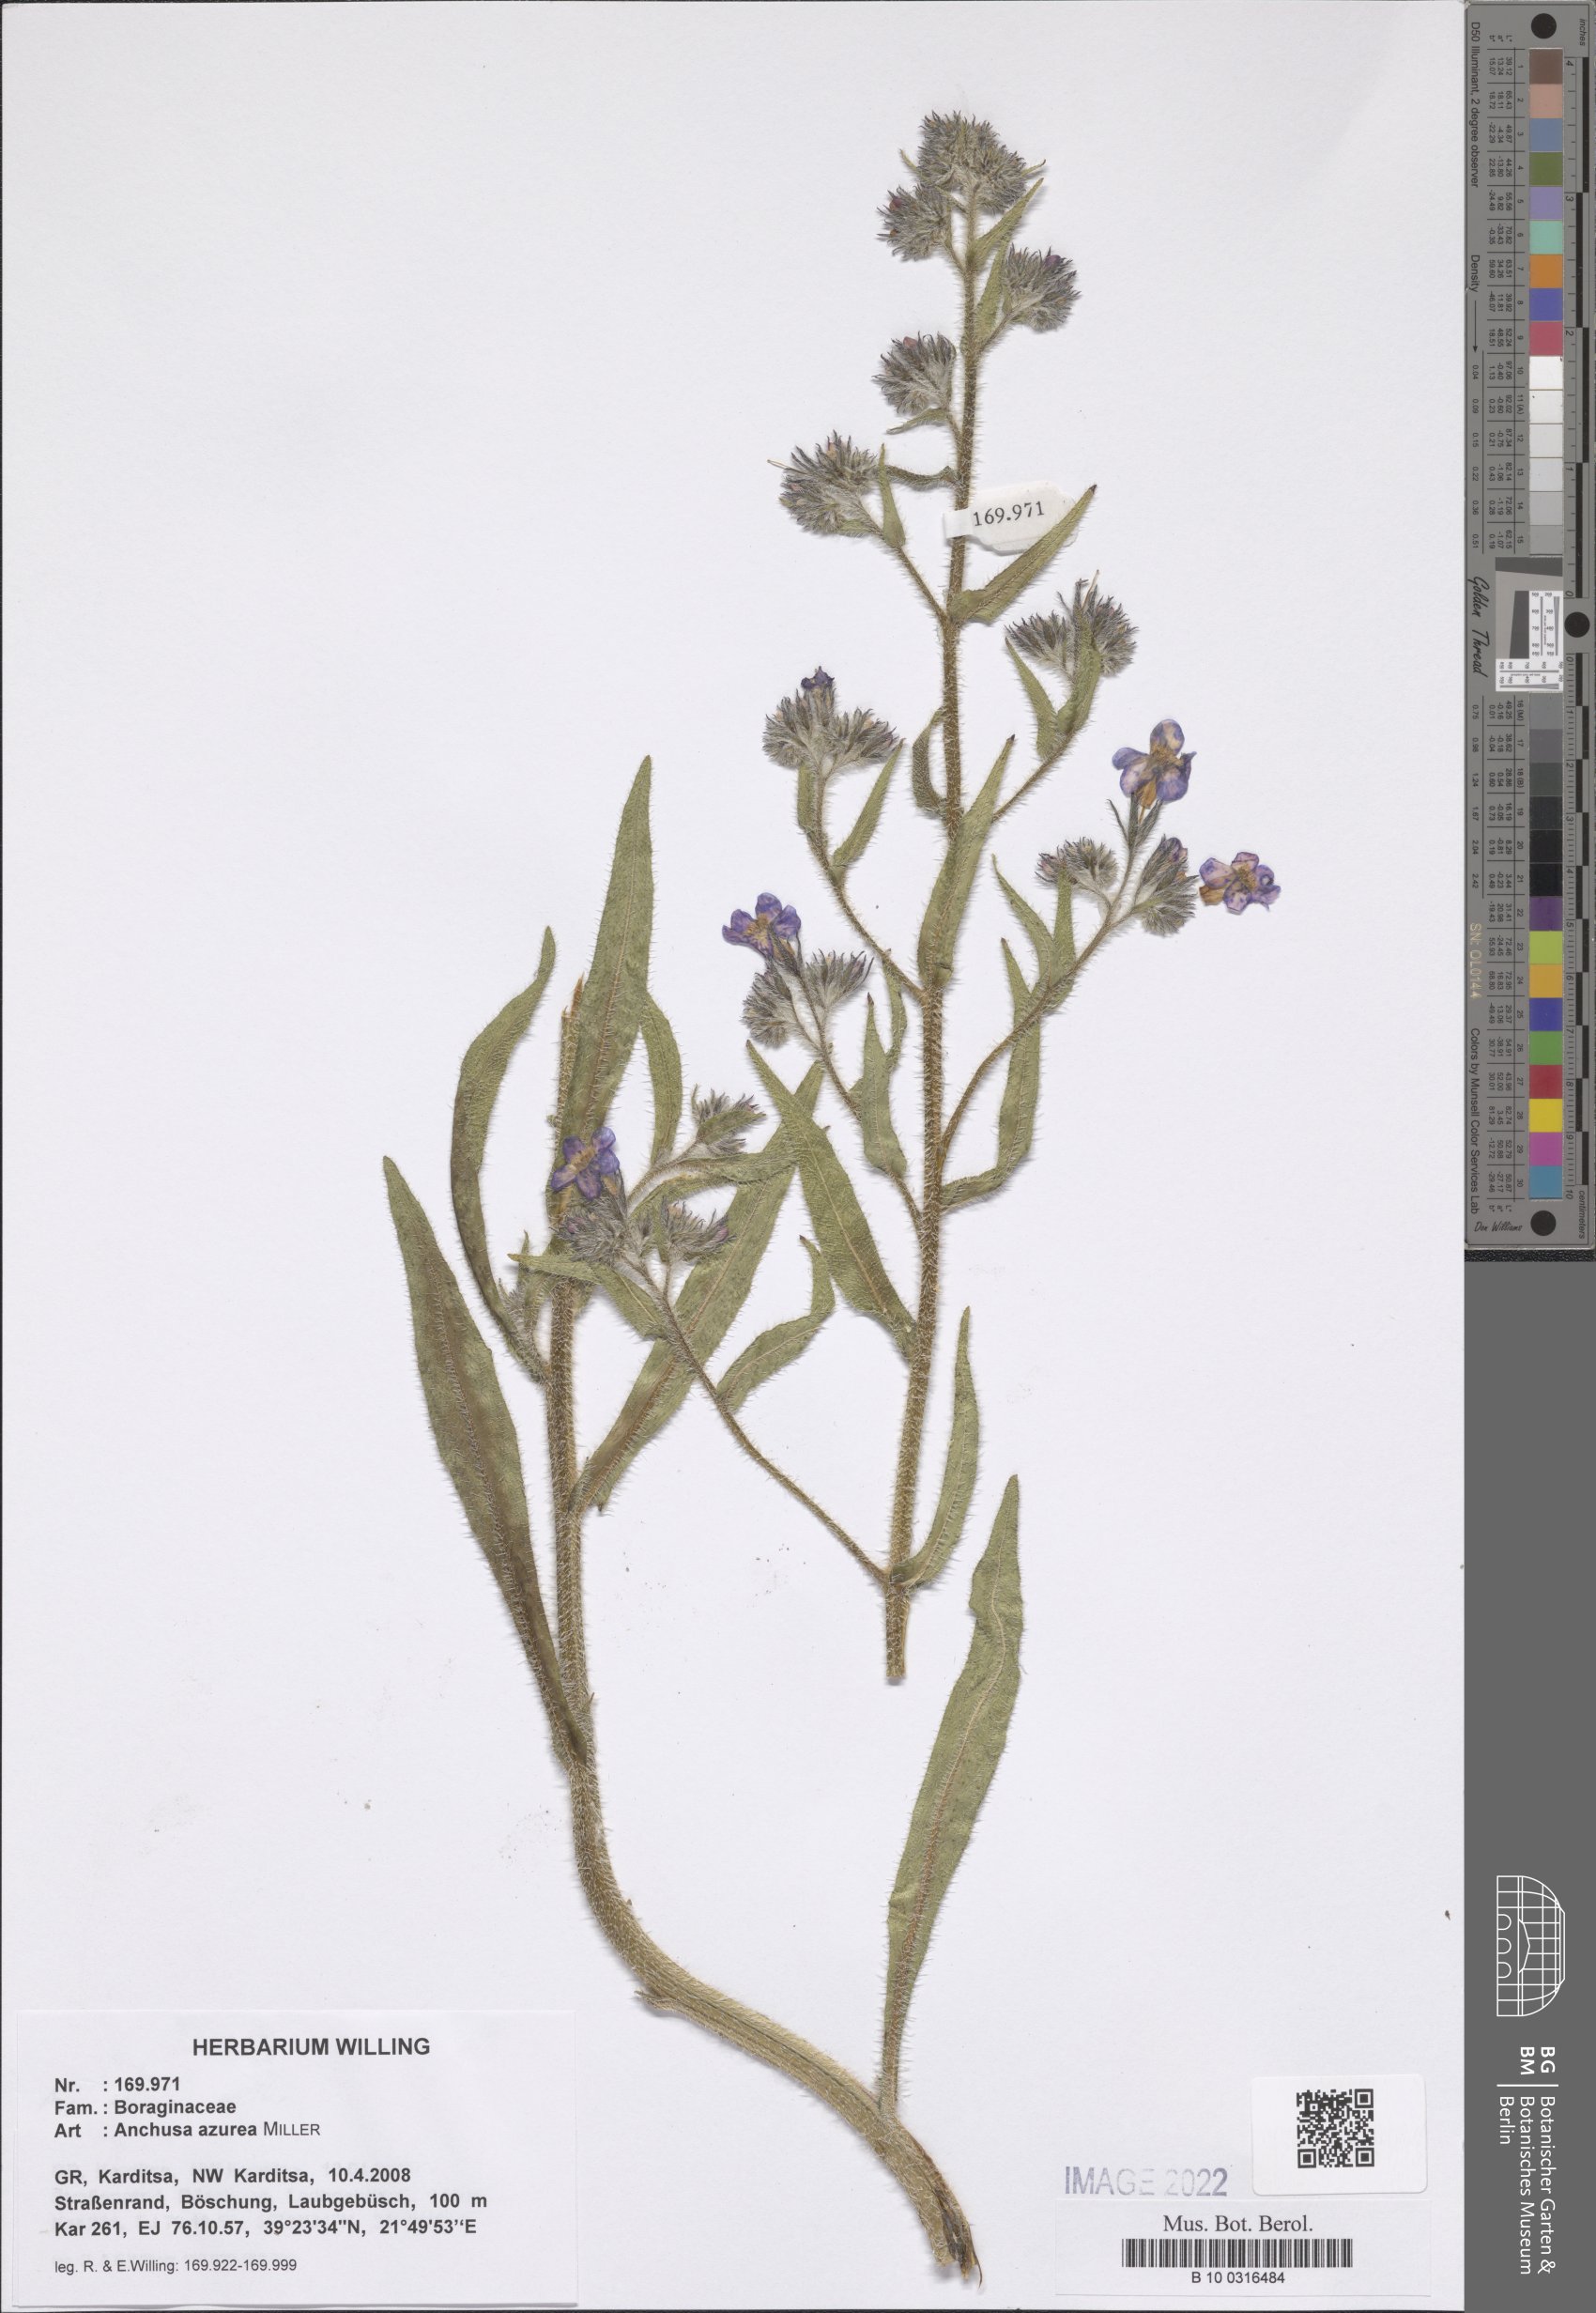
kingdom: Plantae
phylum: Tracheophyta
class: Magnoliopsida
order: Boraginales
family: Boraginaceae
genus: Anchusa
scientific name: Anchusa azurea
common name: Garden anchusa
